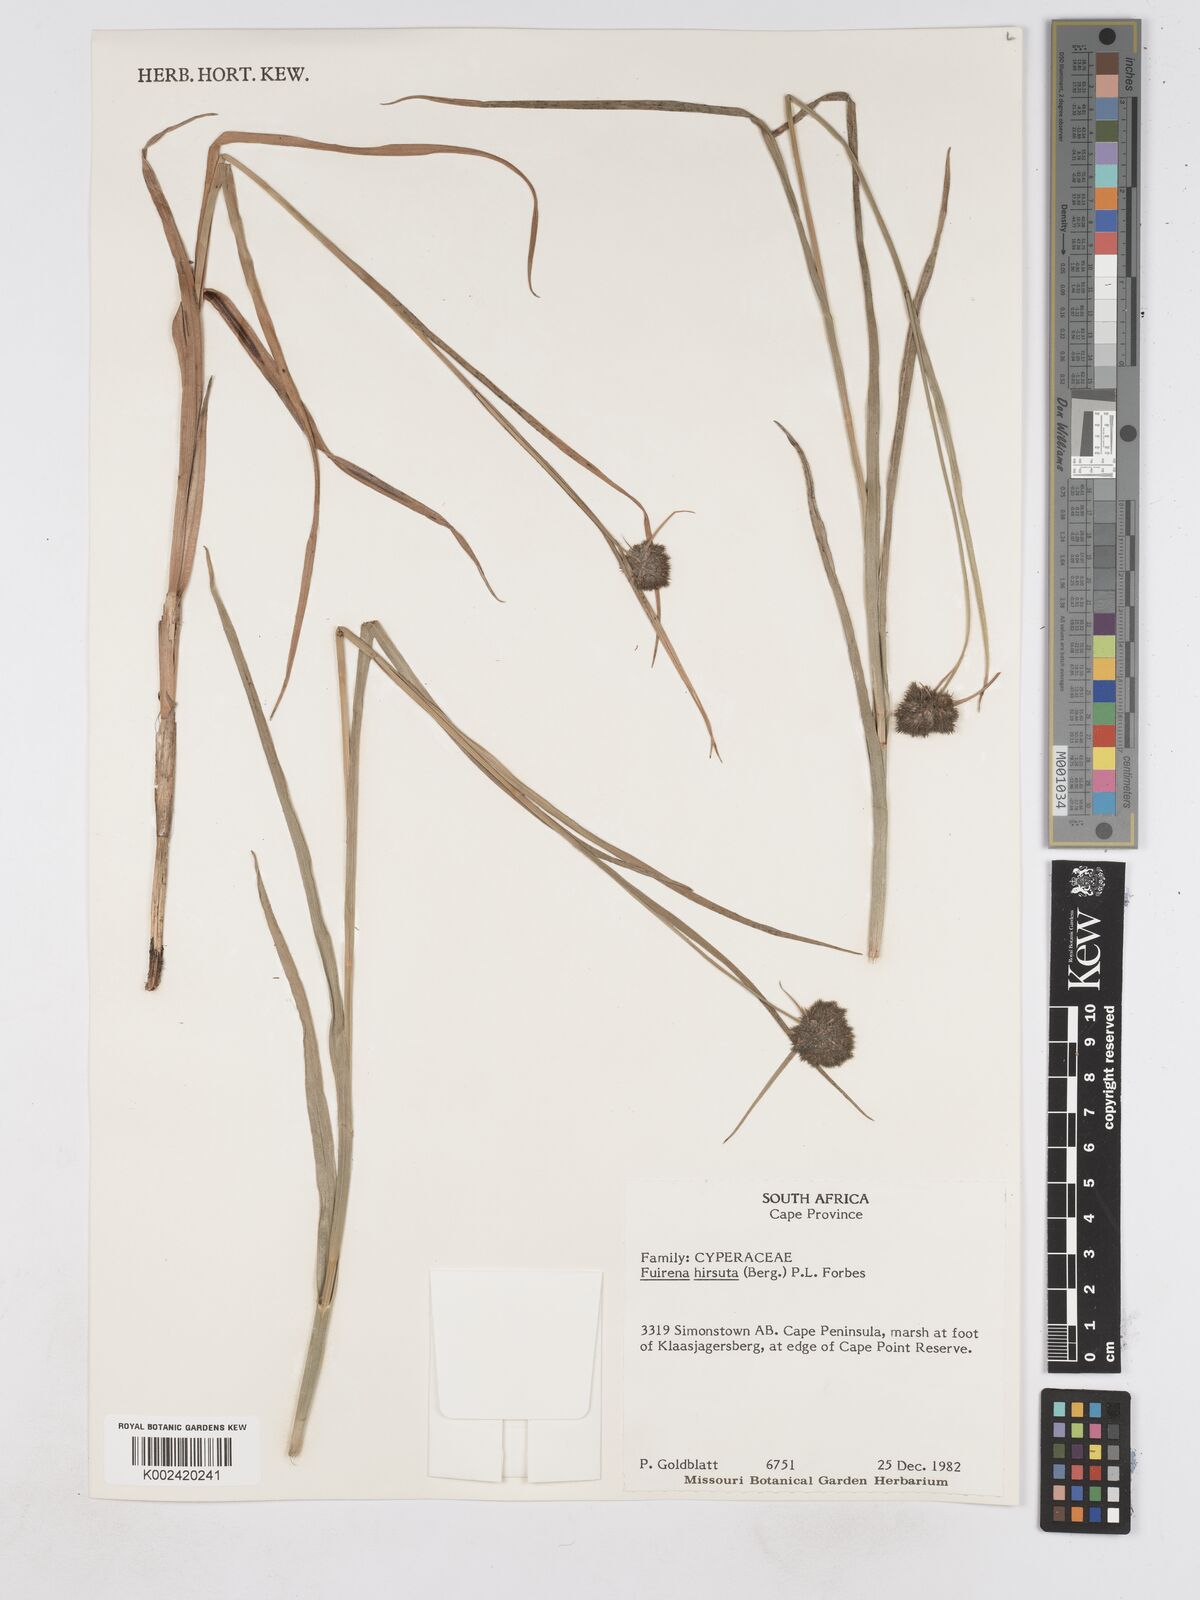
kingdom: Plantae
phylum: Tracheophyta
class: Liliopsida
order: Poales
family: Cyperaceae
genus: Fuirena
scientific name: Fuirena hirsuta
